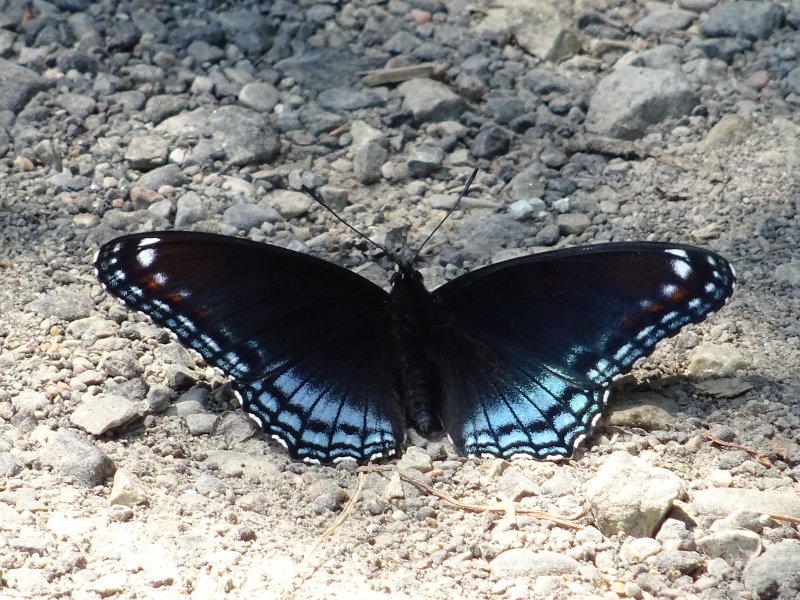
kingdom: Animalia
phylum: Arthropoda
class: Insecta
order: Lepidoptera
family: Nymphalidae
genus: Limenitis
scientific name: Limenitis astyanax
